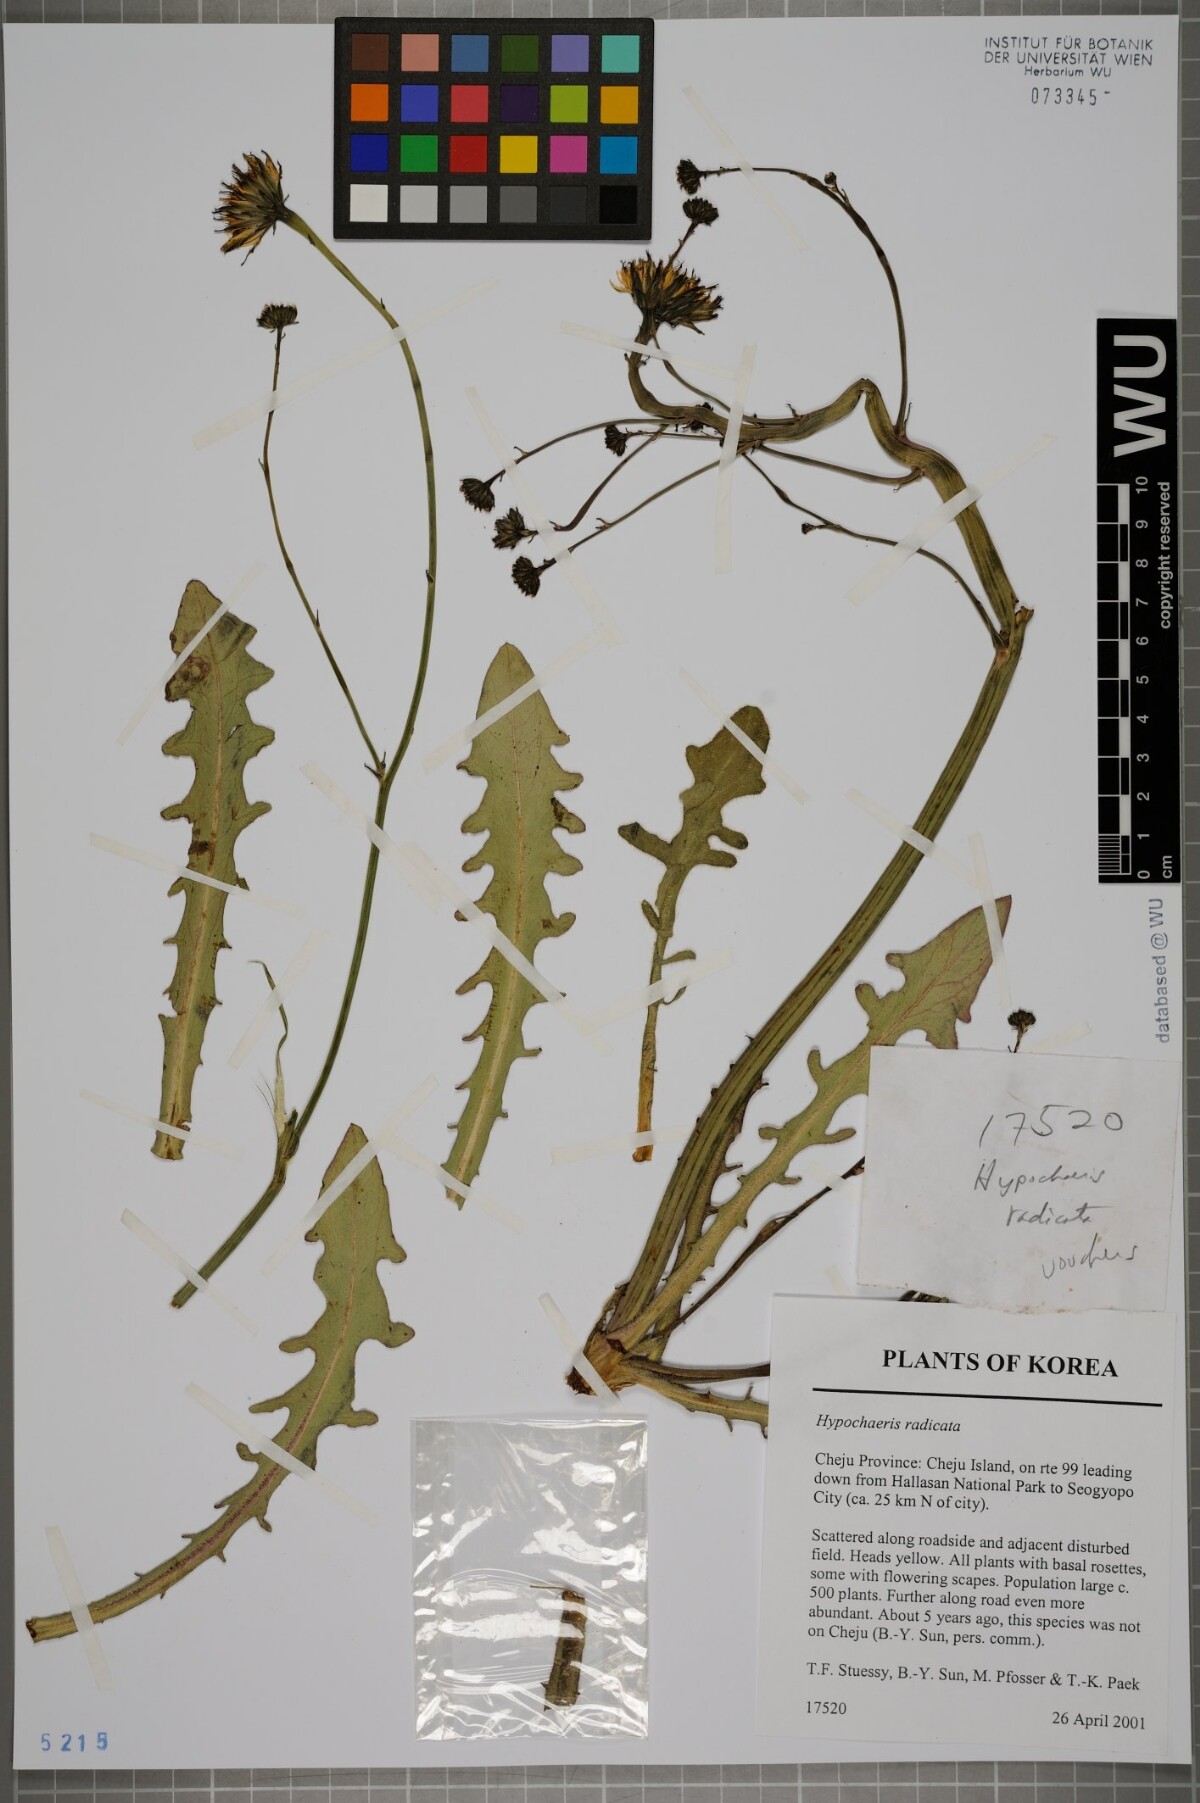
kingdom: Plantae
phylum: Tracheophyta
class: Magnoliopsida
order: Asterales
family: Asteraceae
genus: Hypochaeris
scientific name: Hypochaeris radicata
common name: Flatweed
